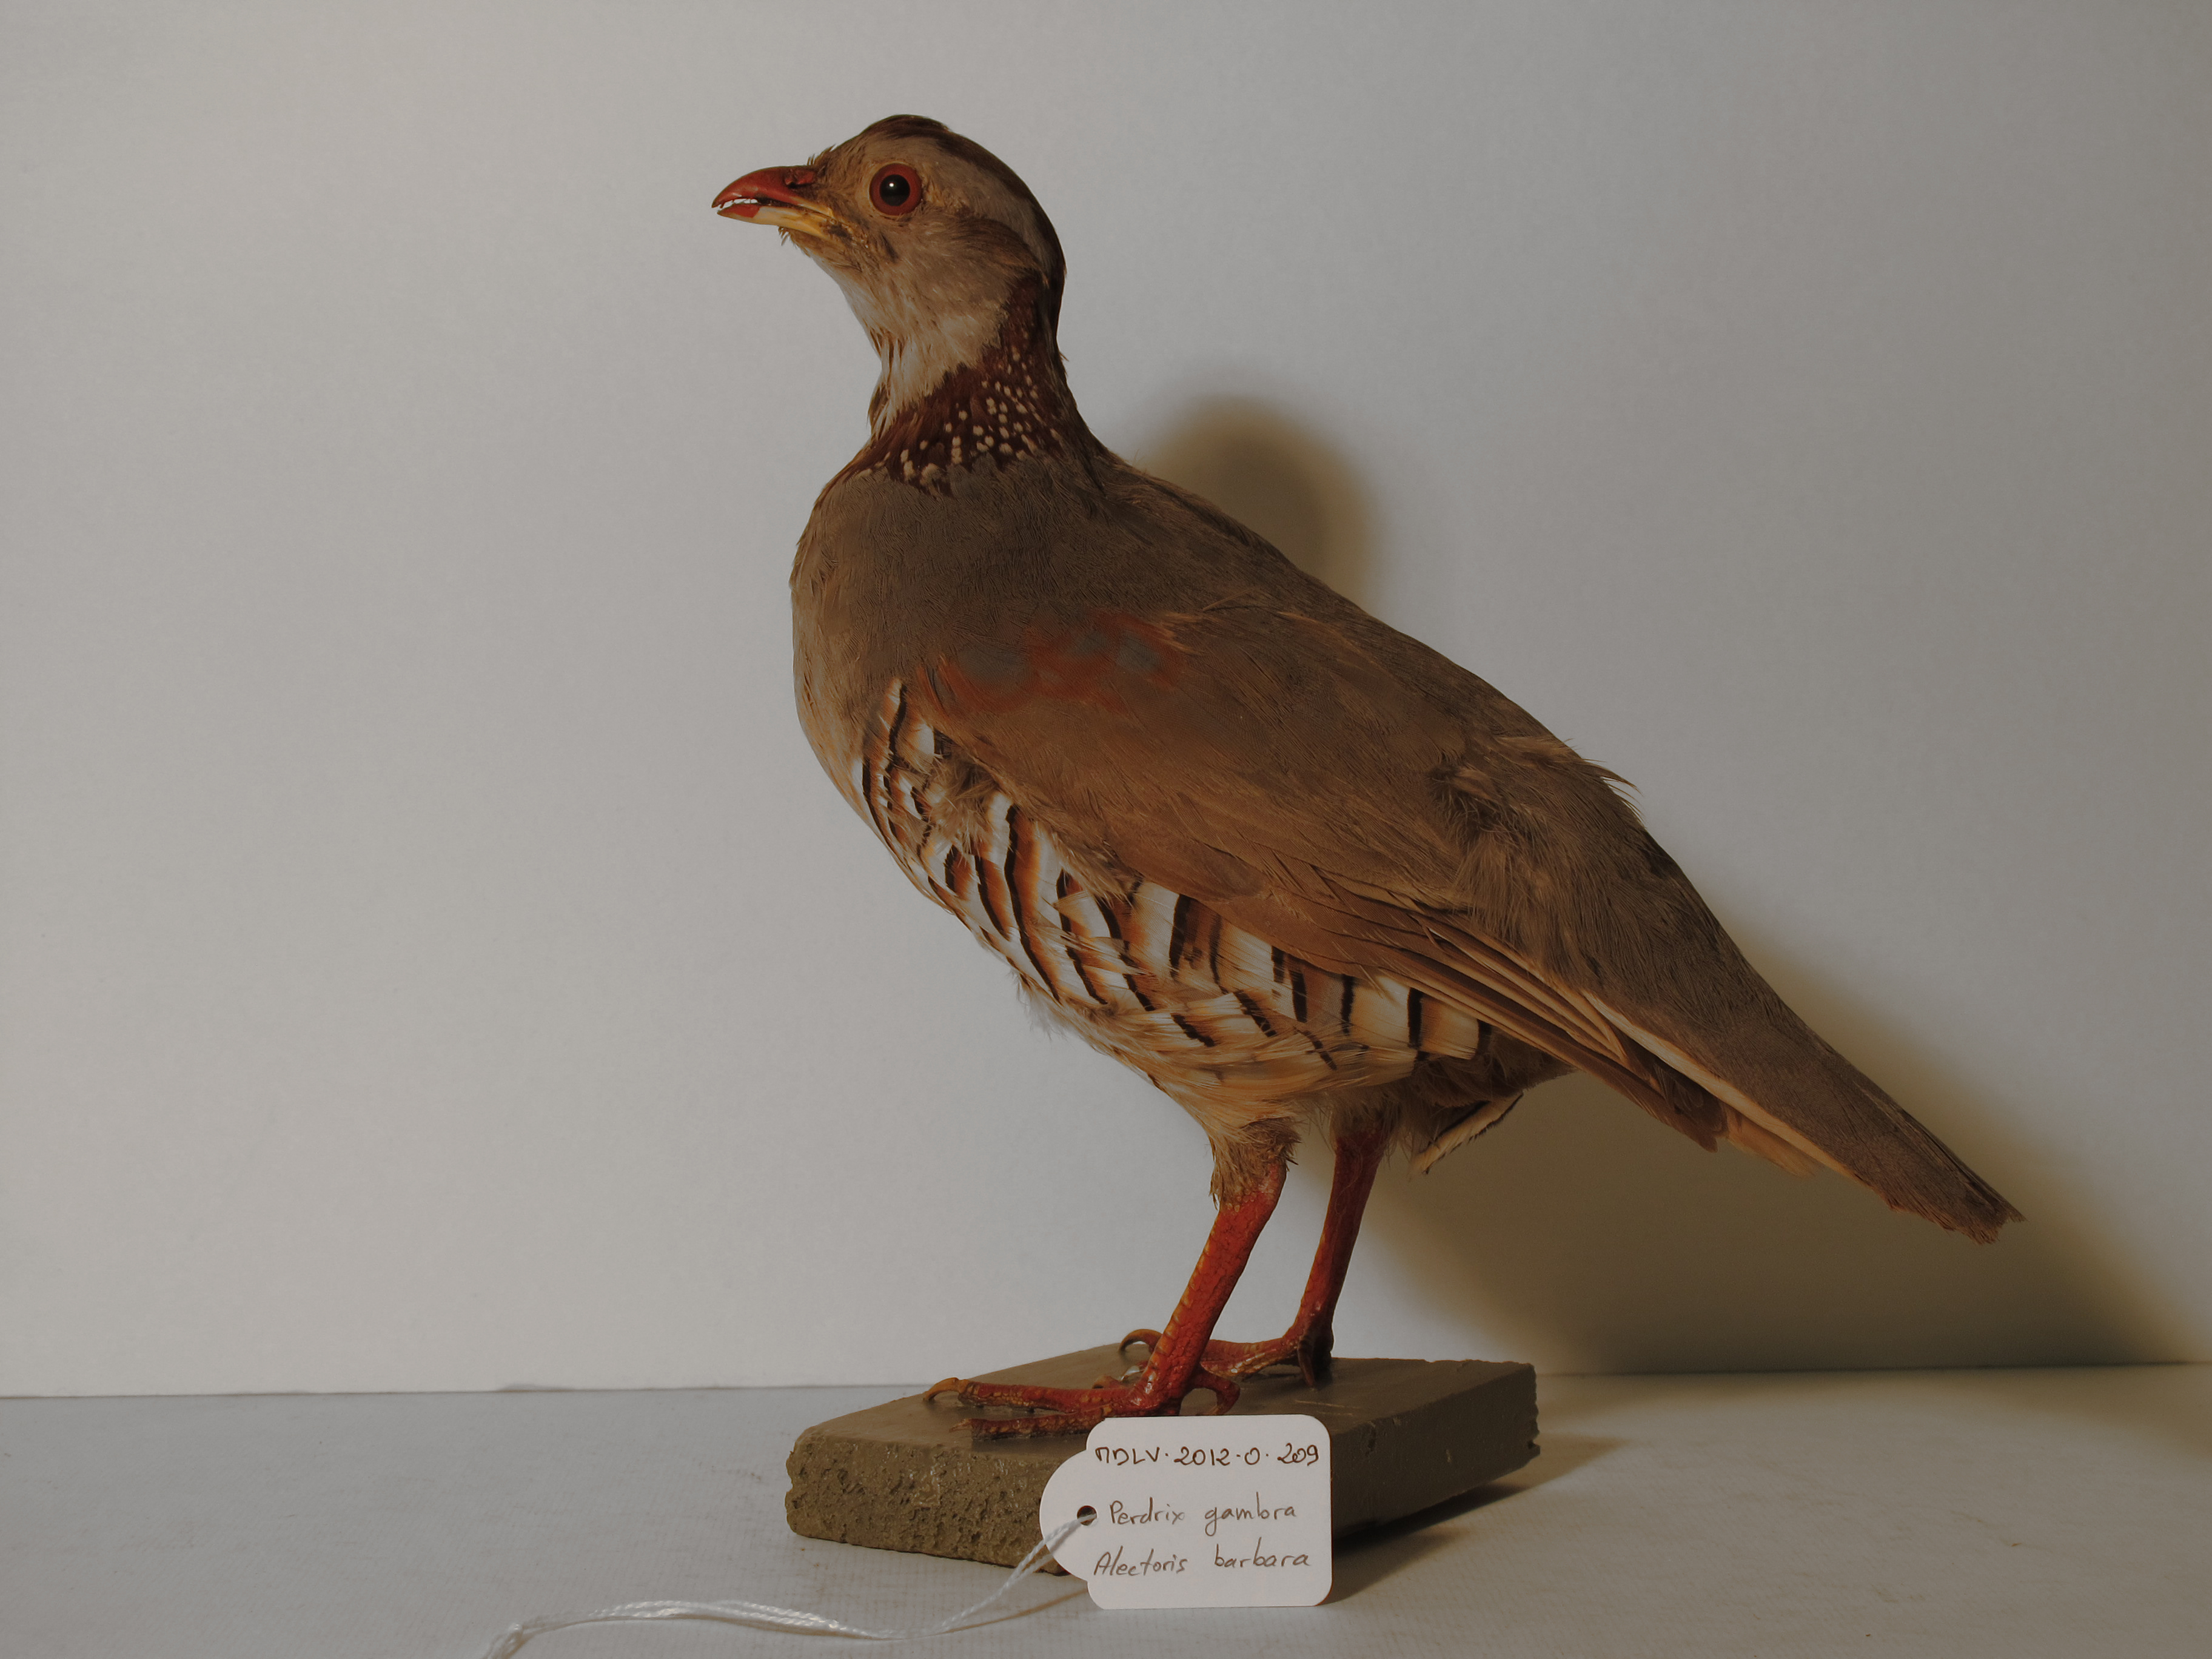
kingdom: Animalia
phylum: Chordata
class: Aves
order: Galliformes
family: Phasianidae
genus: Alectoris
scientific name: Alectoris barbara
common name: Barbary Partridge
